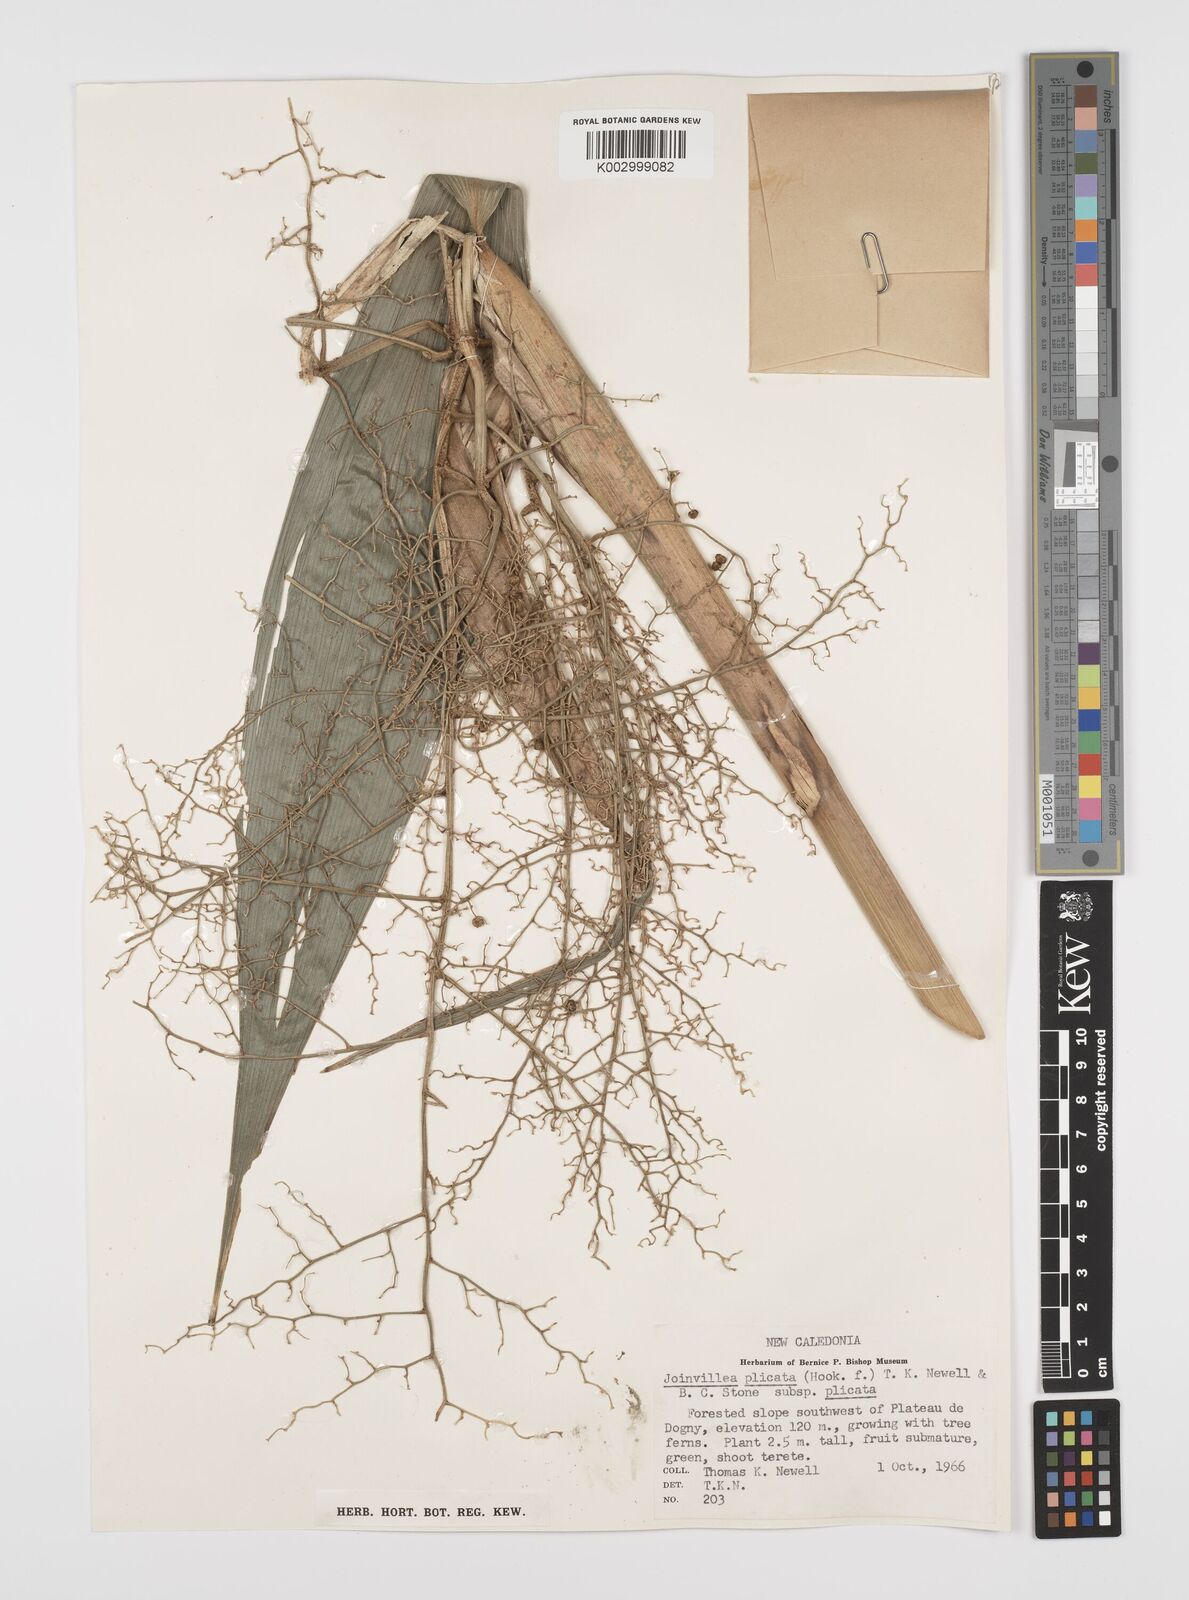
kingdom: Plantae
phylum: Tracheophyta
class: Liliopsida
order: Poales
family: Joinvilleaceae
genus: Joinvillea
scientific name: Joinvillea plicata
